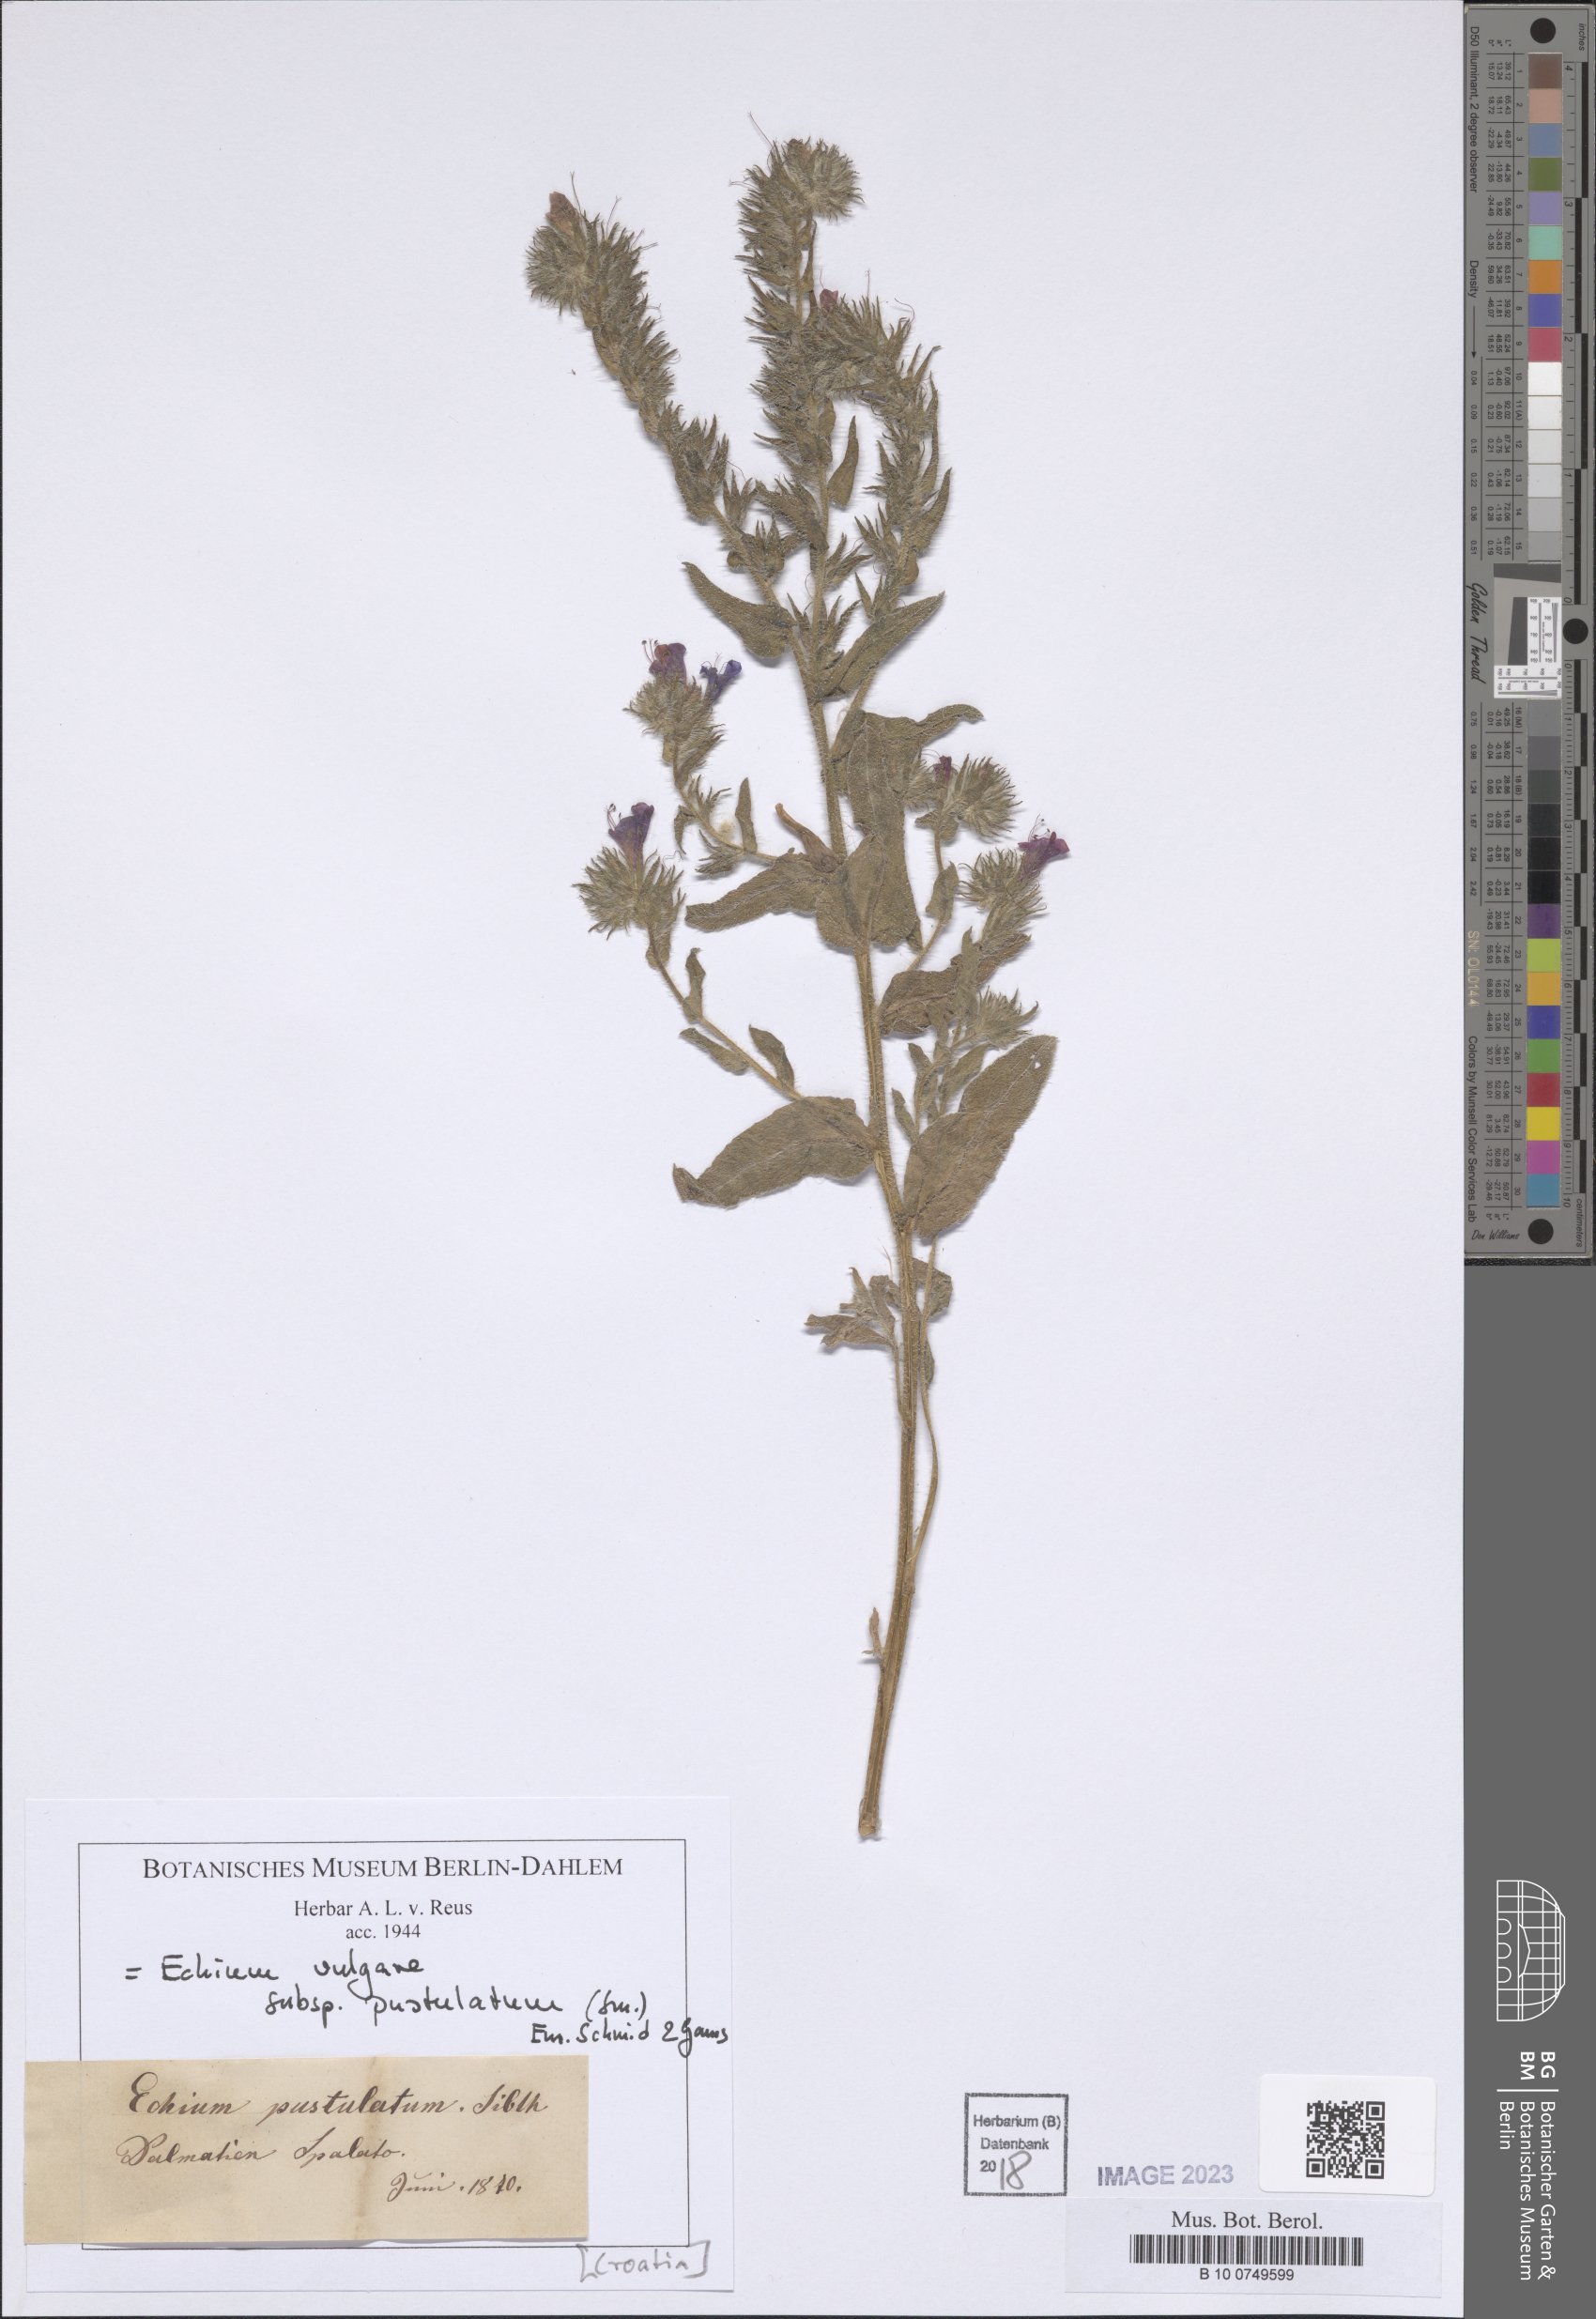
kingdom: Plantae
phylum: Tracheophyta
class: Magnoliopsida
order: Boraginales
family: Boraginaceae
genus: Echium
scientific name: Echium vulgare
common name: Common viper's bugloss
